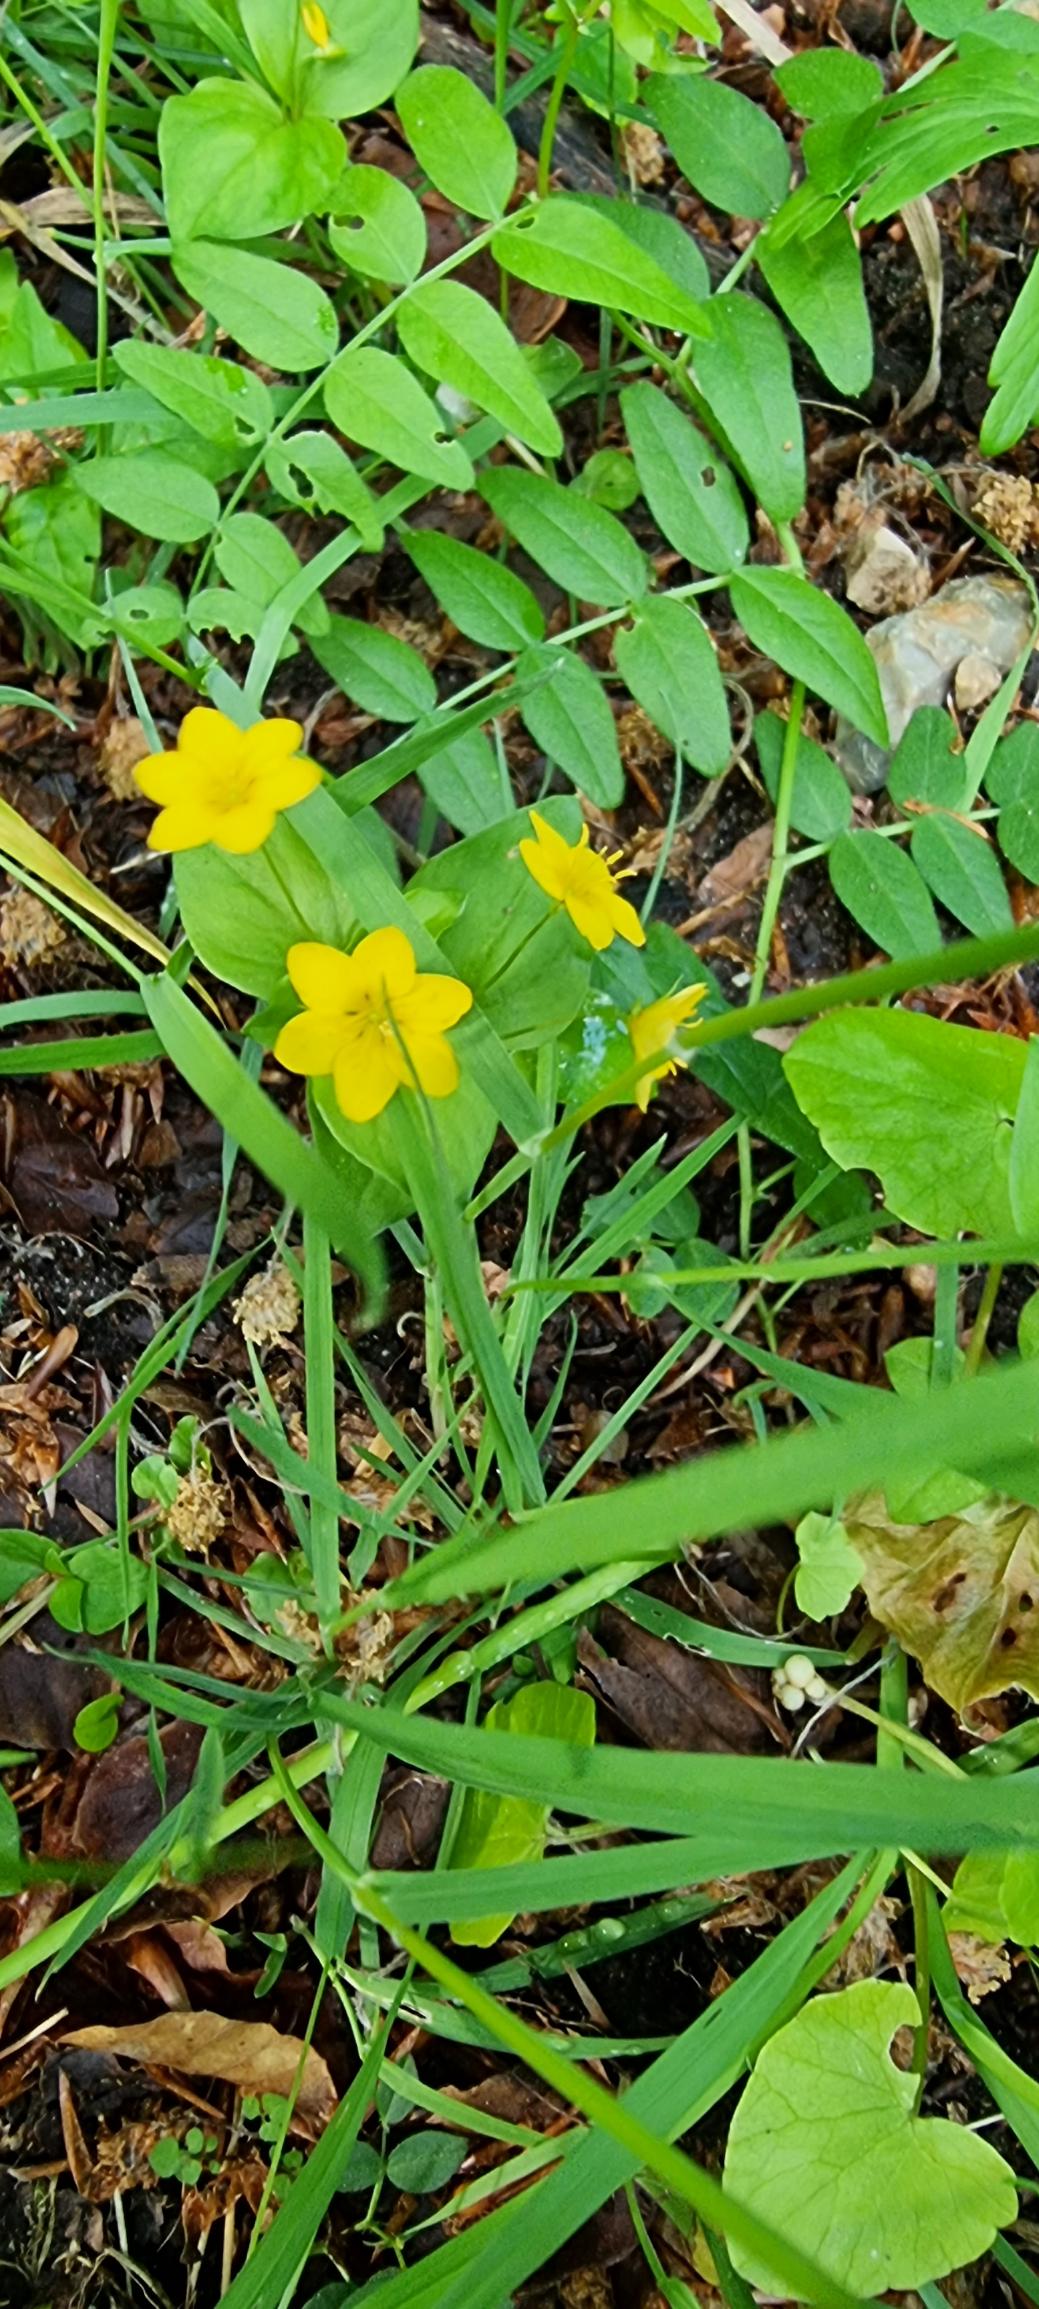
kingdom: Plantae
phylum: Tracheophyta
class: Magnoliopsida
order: Ericales
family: Primulaceae
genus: Lysimachia
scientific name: Lysimachia nemorum
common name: Lund-fredløs
